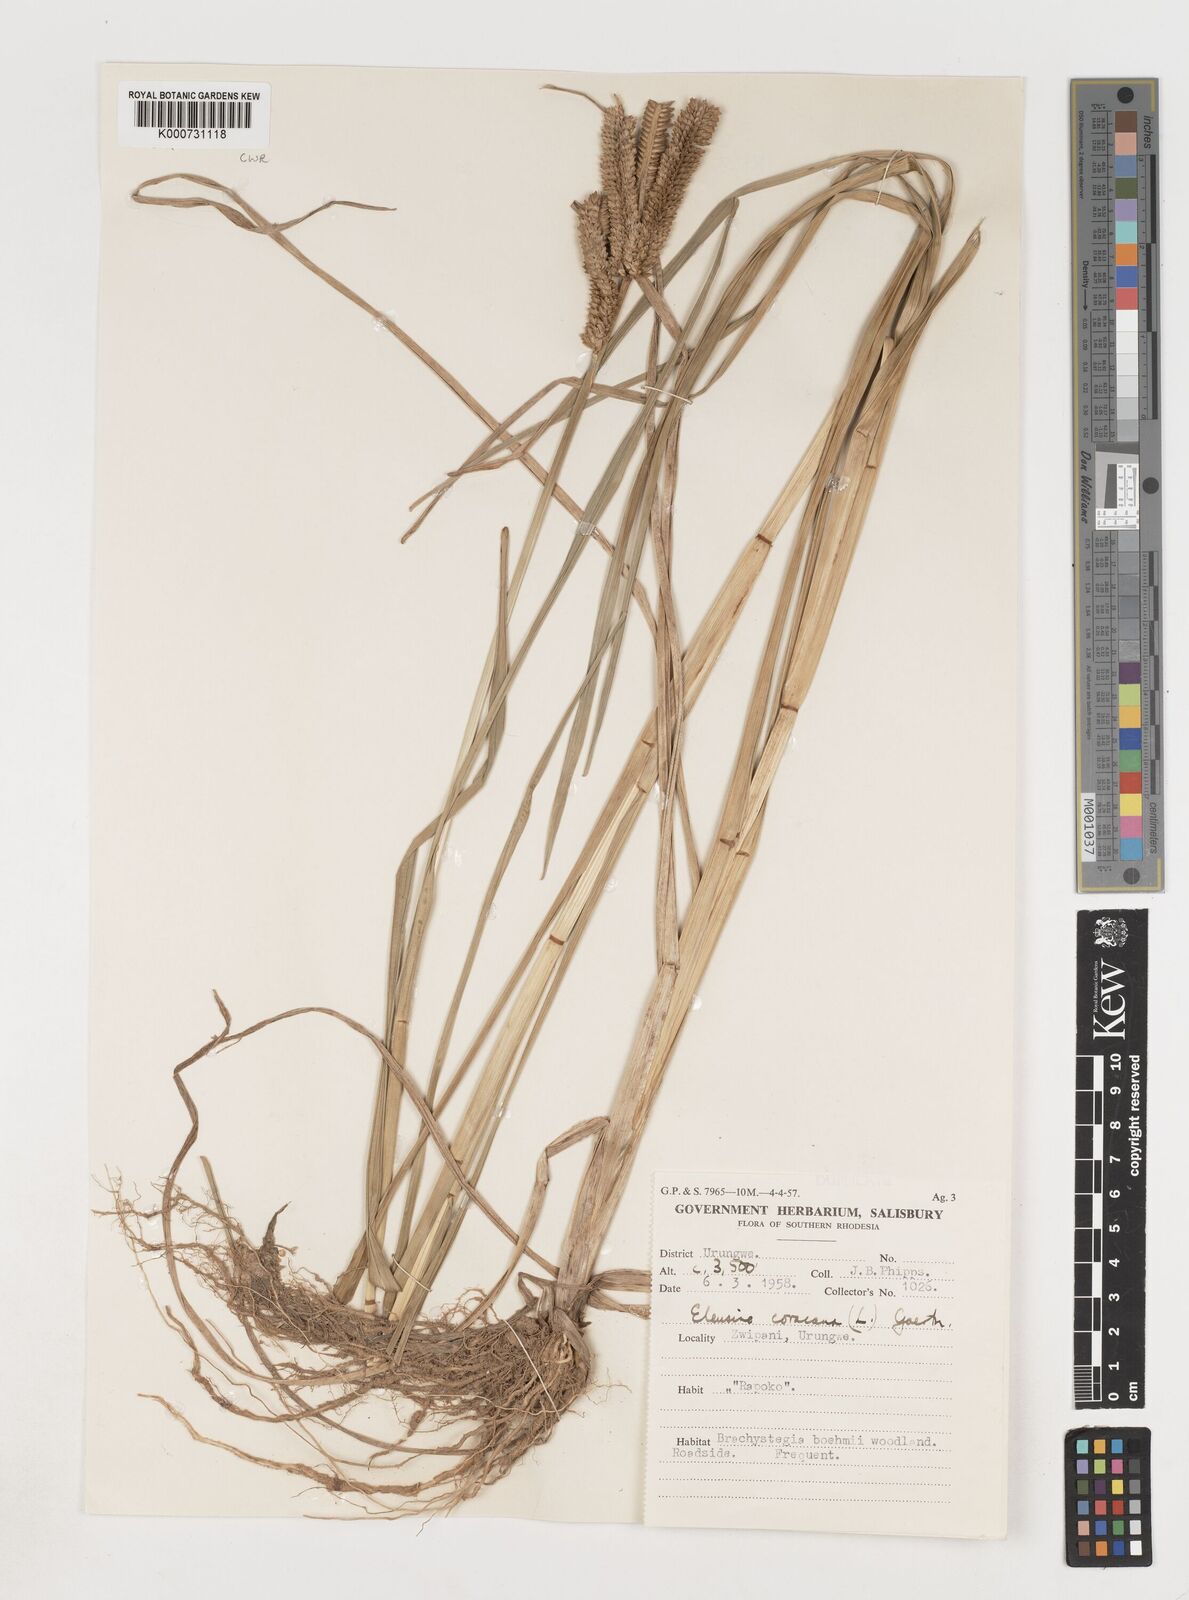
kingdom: Plantae
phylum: Tracheophyta
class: Liliopsida
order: Poales
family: Poaceae
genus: Eleusine
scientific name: Eleusine coracana
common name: Finger millet
